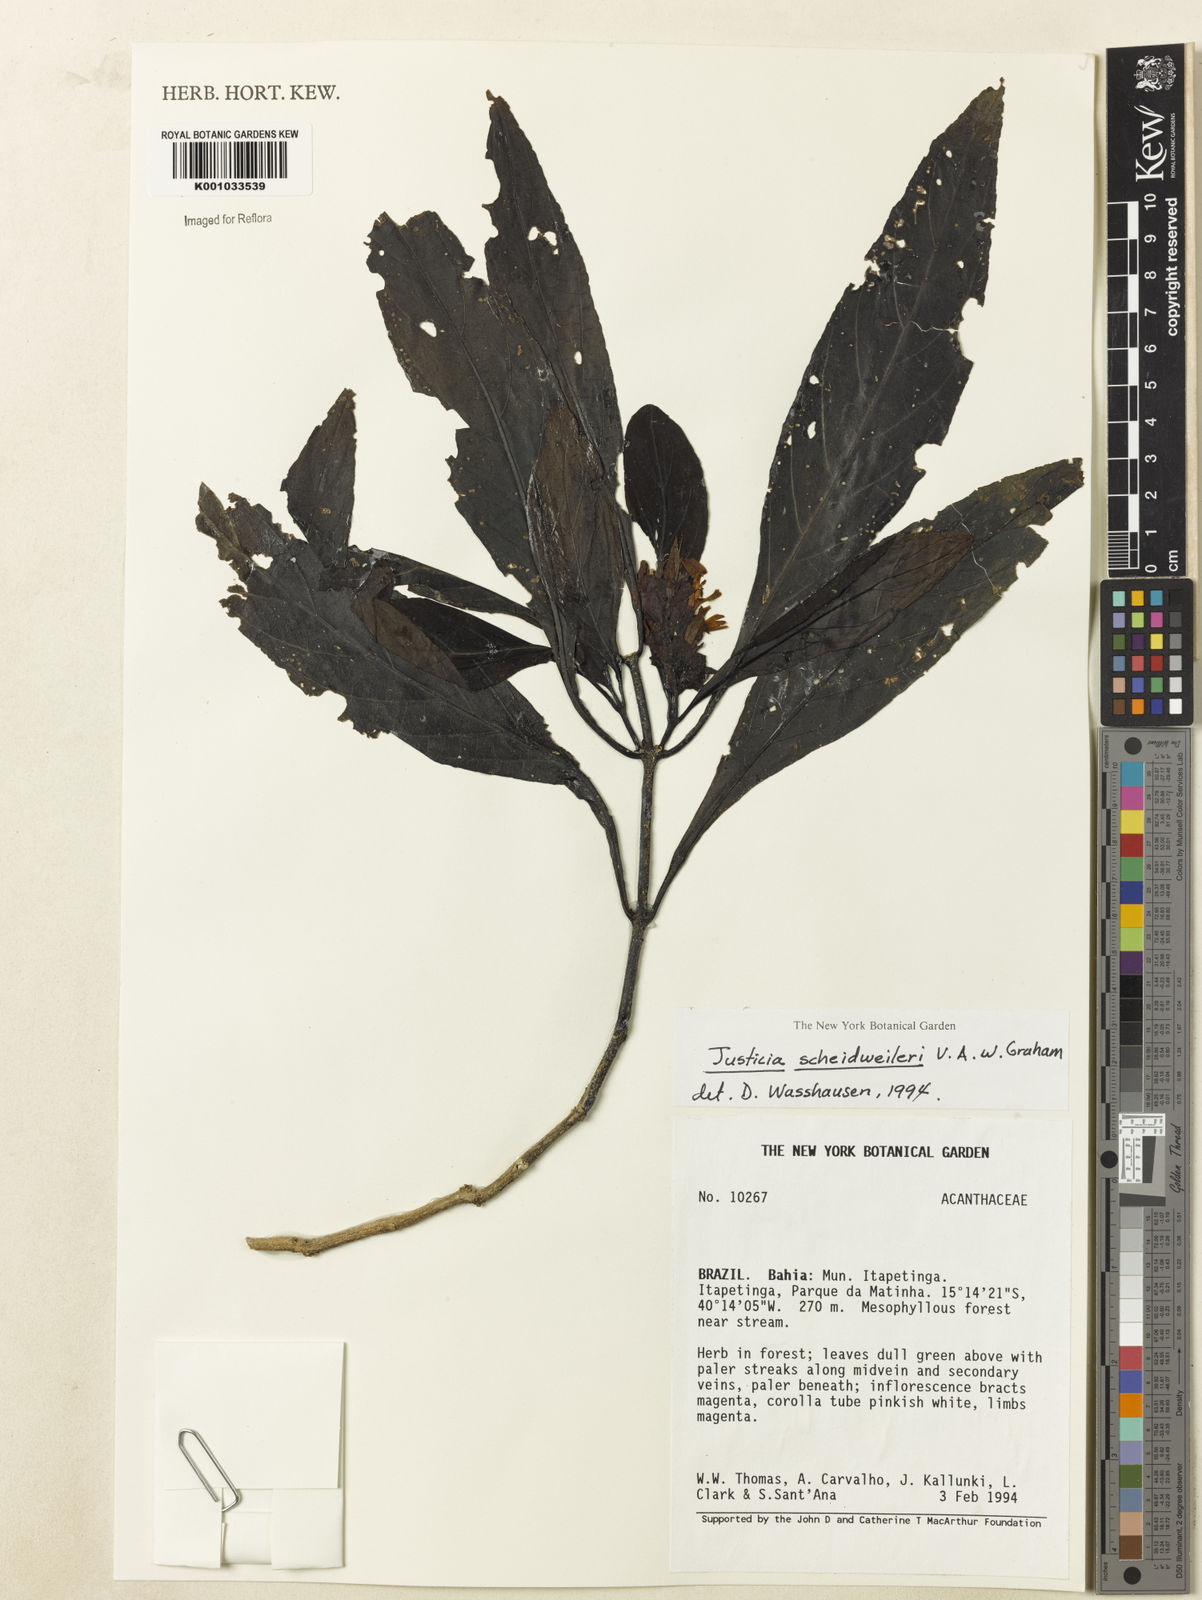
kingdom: Plantae
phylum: Tracheophyta
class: Magnoliopsida
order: Lamiales
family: Acanthaceae
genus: Justicia
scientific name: Justicia scheidweileri
